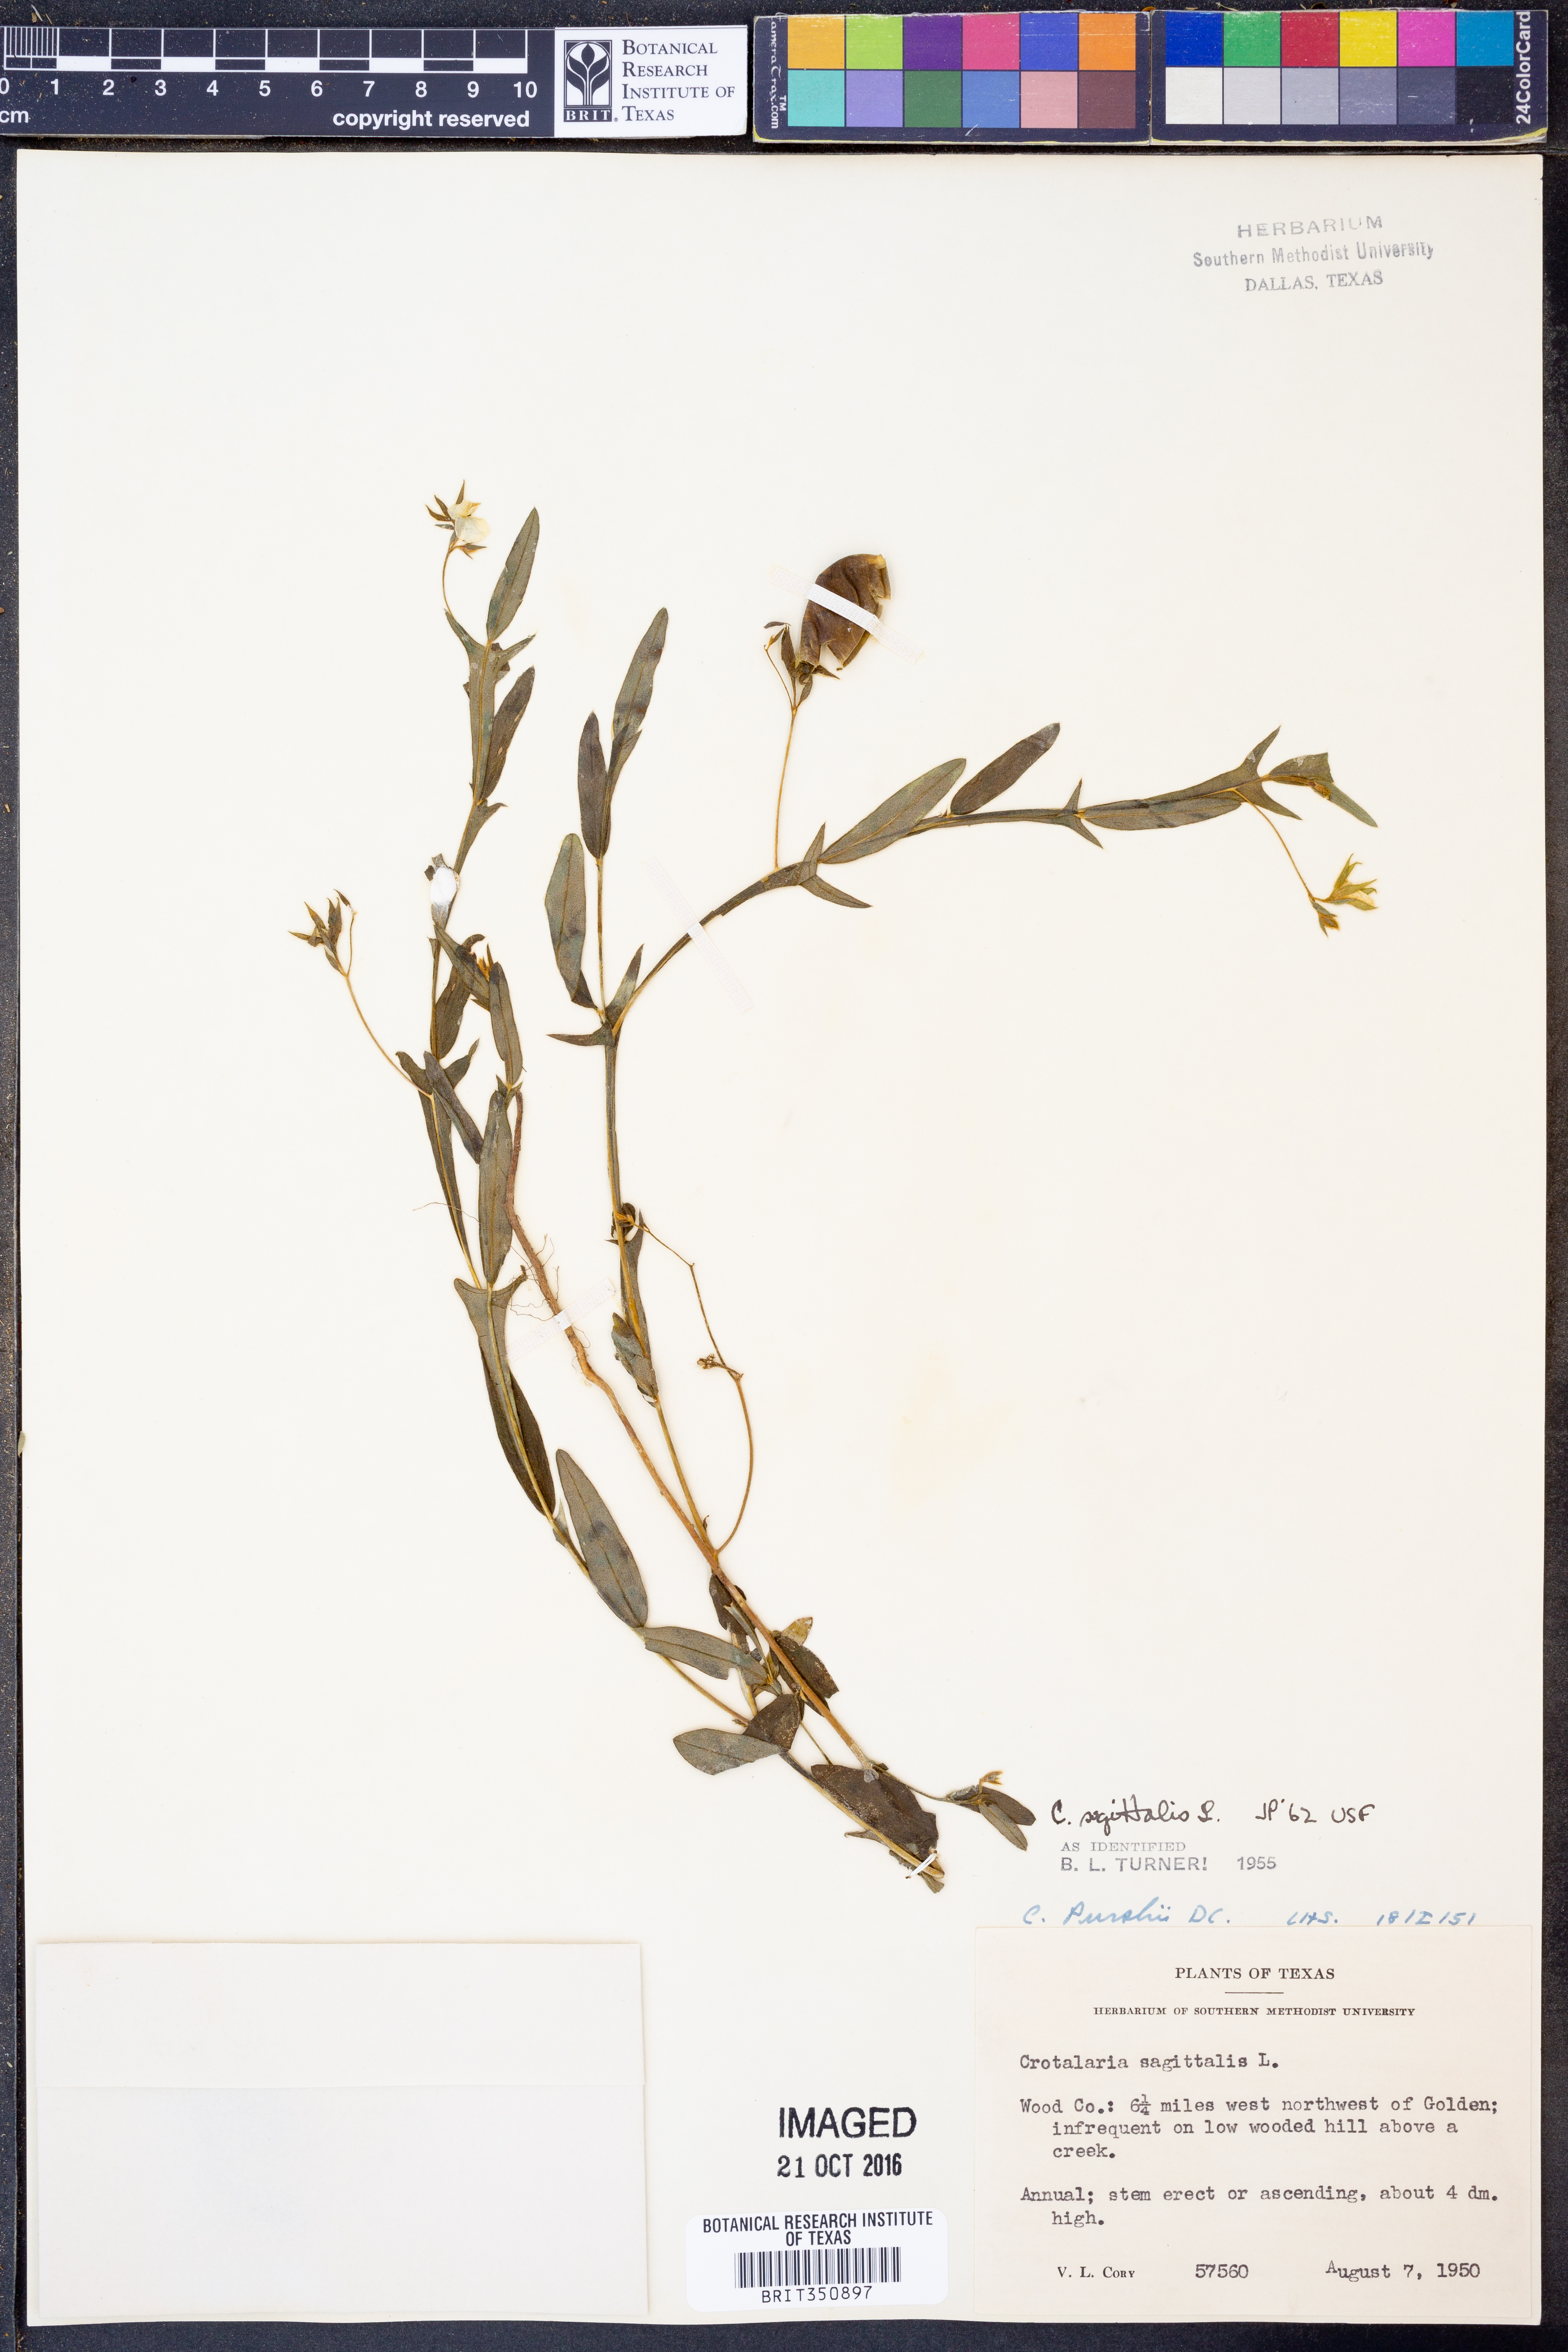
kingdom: Plantae
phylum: Tracheophyta
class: Magnoliopsida
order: Fabales
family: Fabaceae
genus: Crotalaria
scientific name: Crotalaria sagittalis
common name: Arrowhead rattlebox
